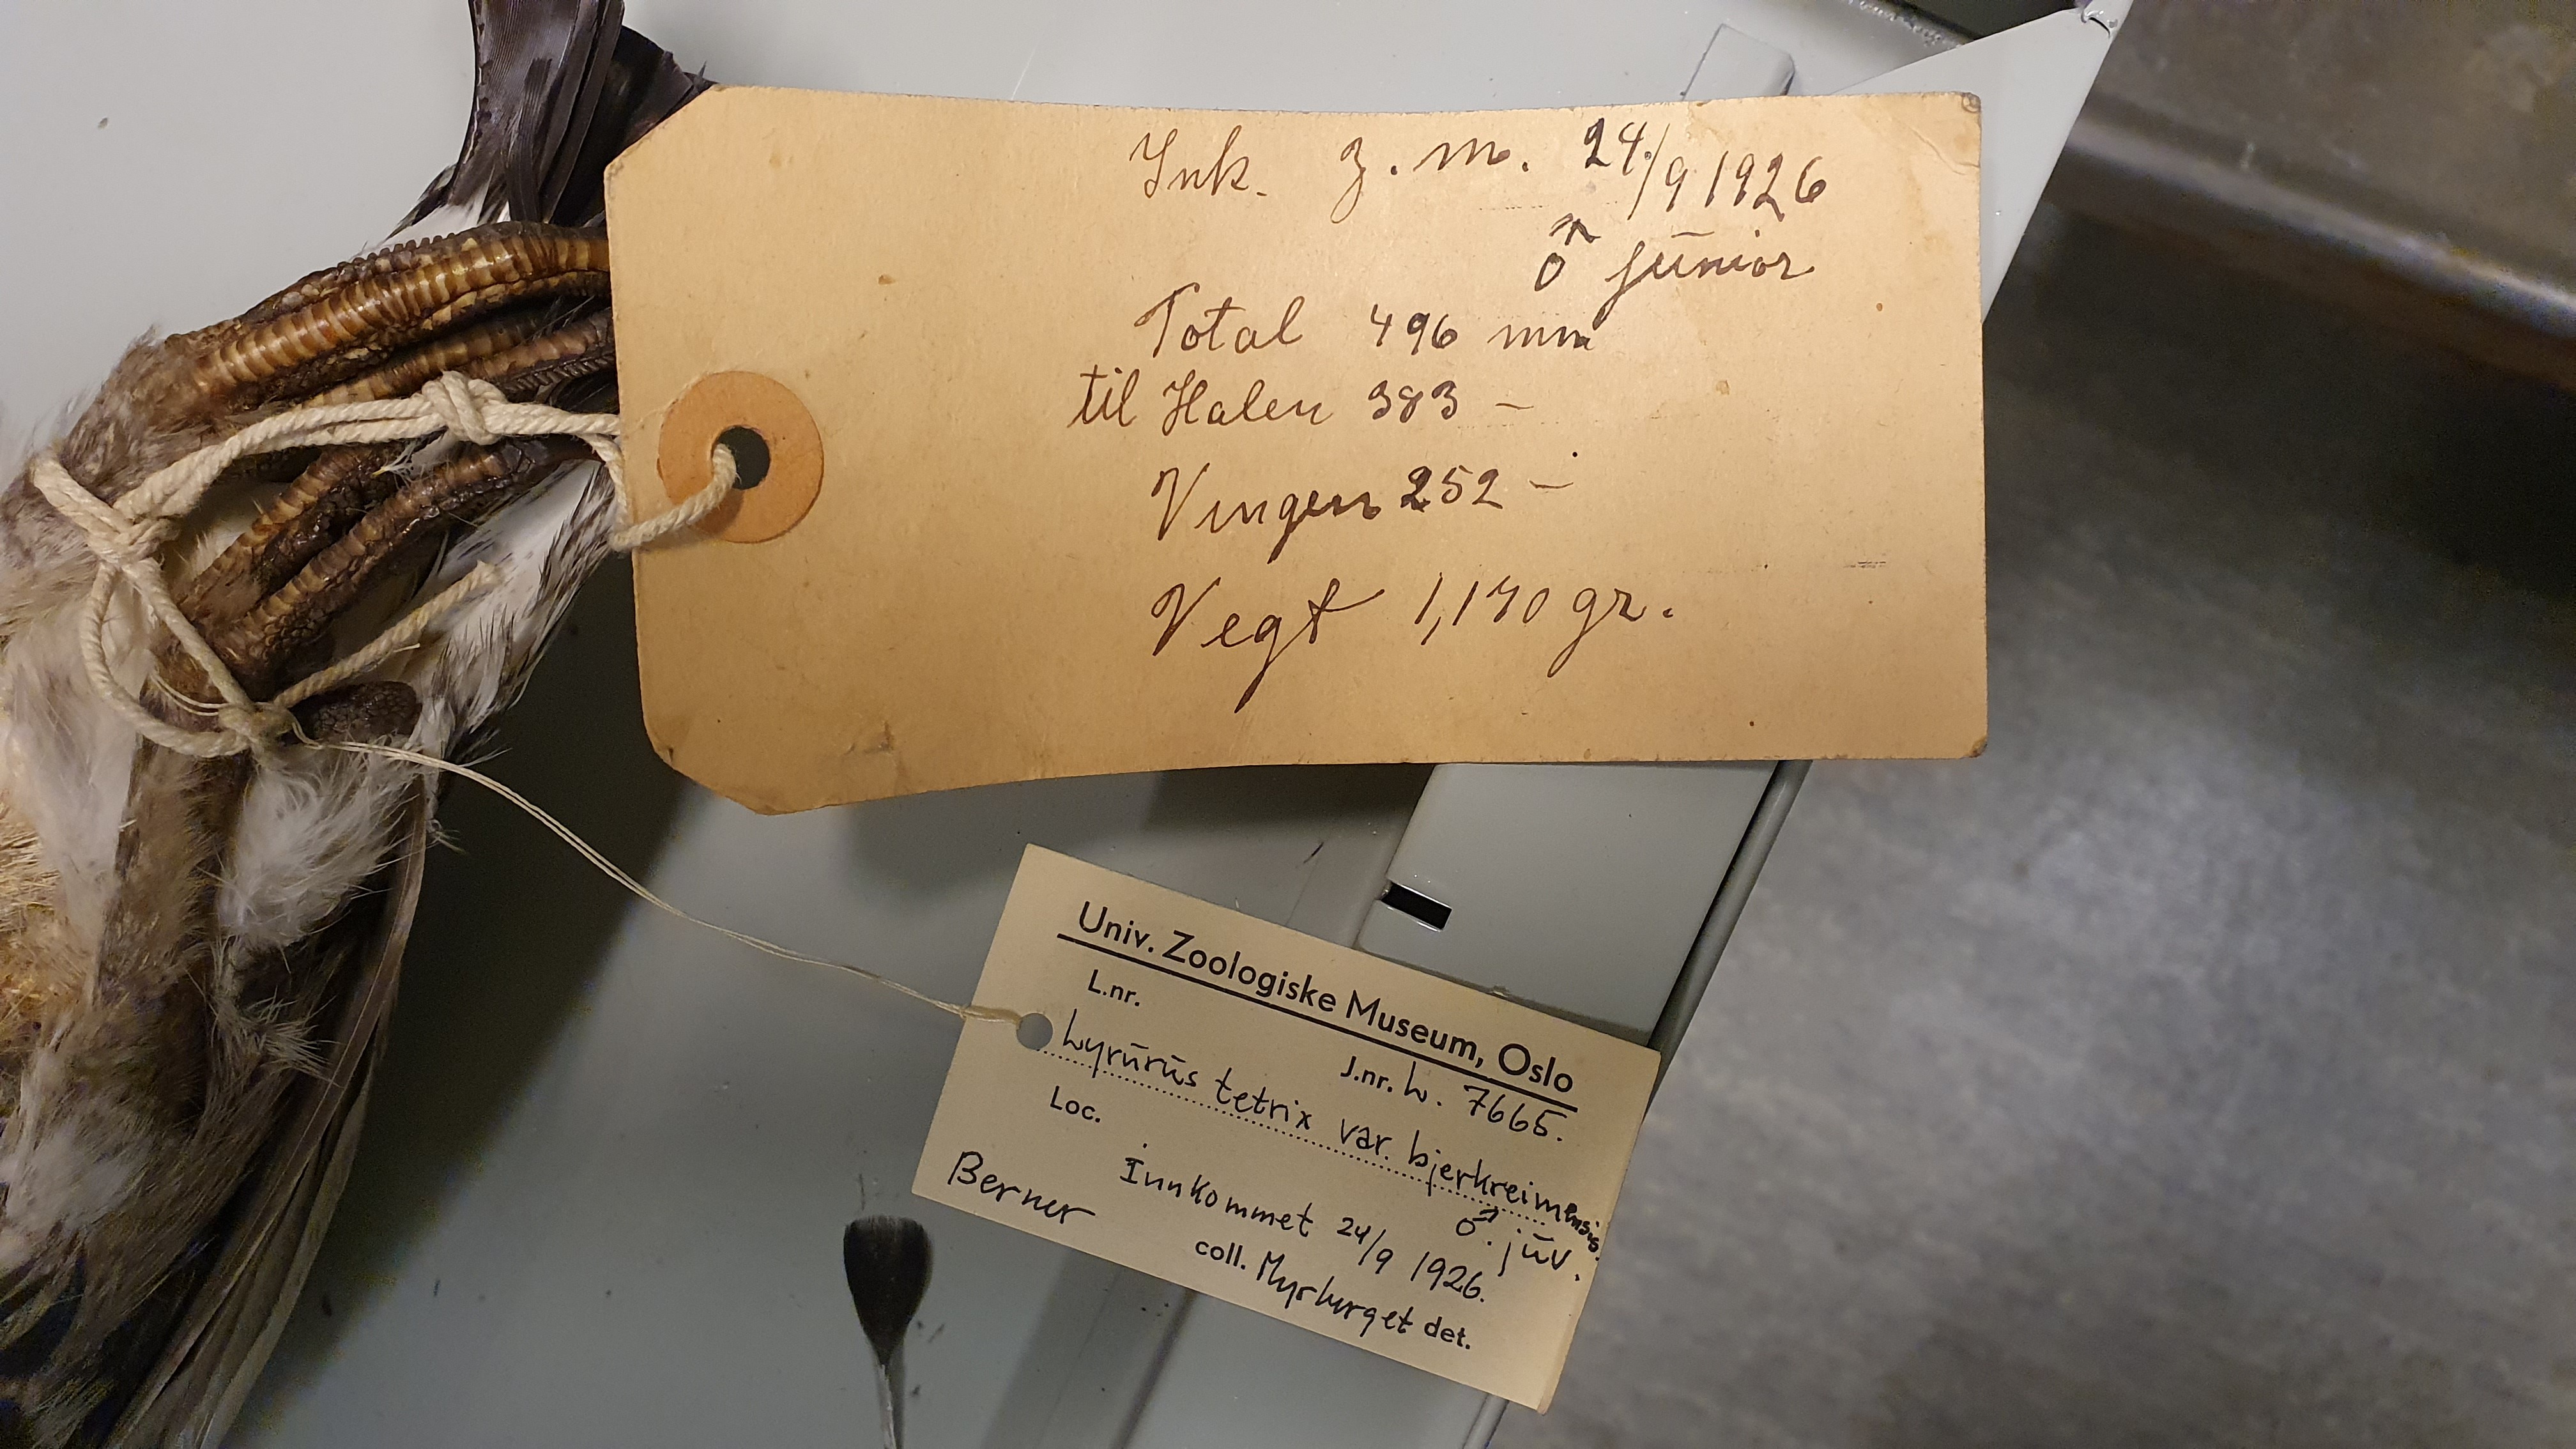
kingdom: Animalia
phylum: Chordata
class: Aves
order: Galliformes
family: Phasianidae
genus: Lyrurus
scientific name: Lyrurus tetrix
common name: Black grouse
